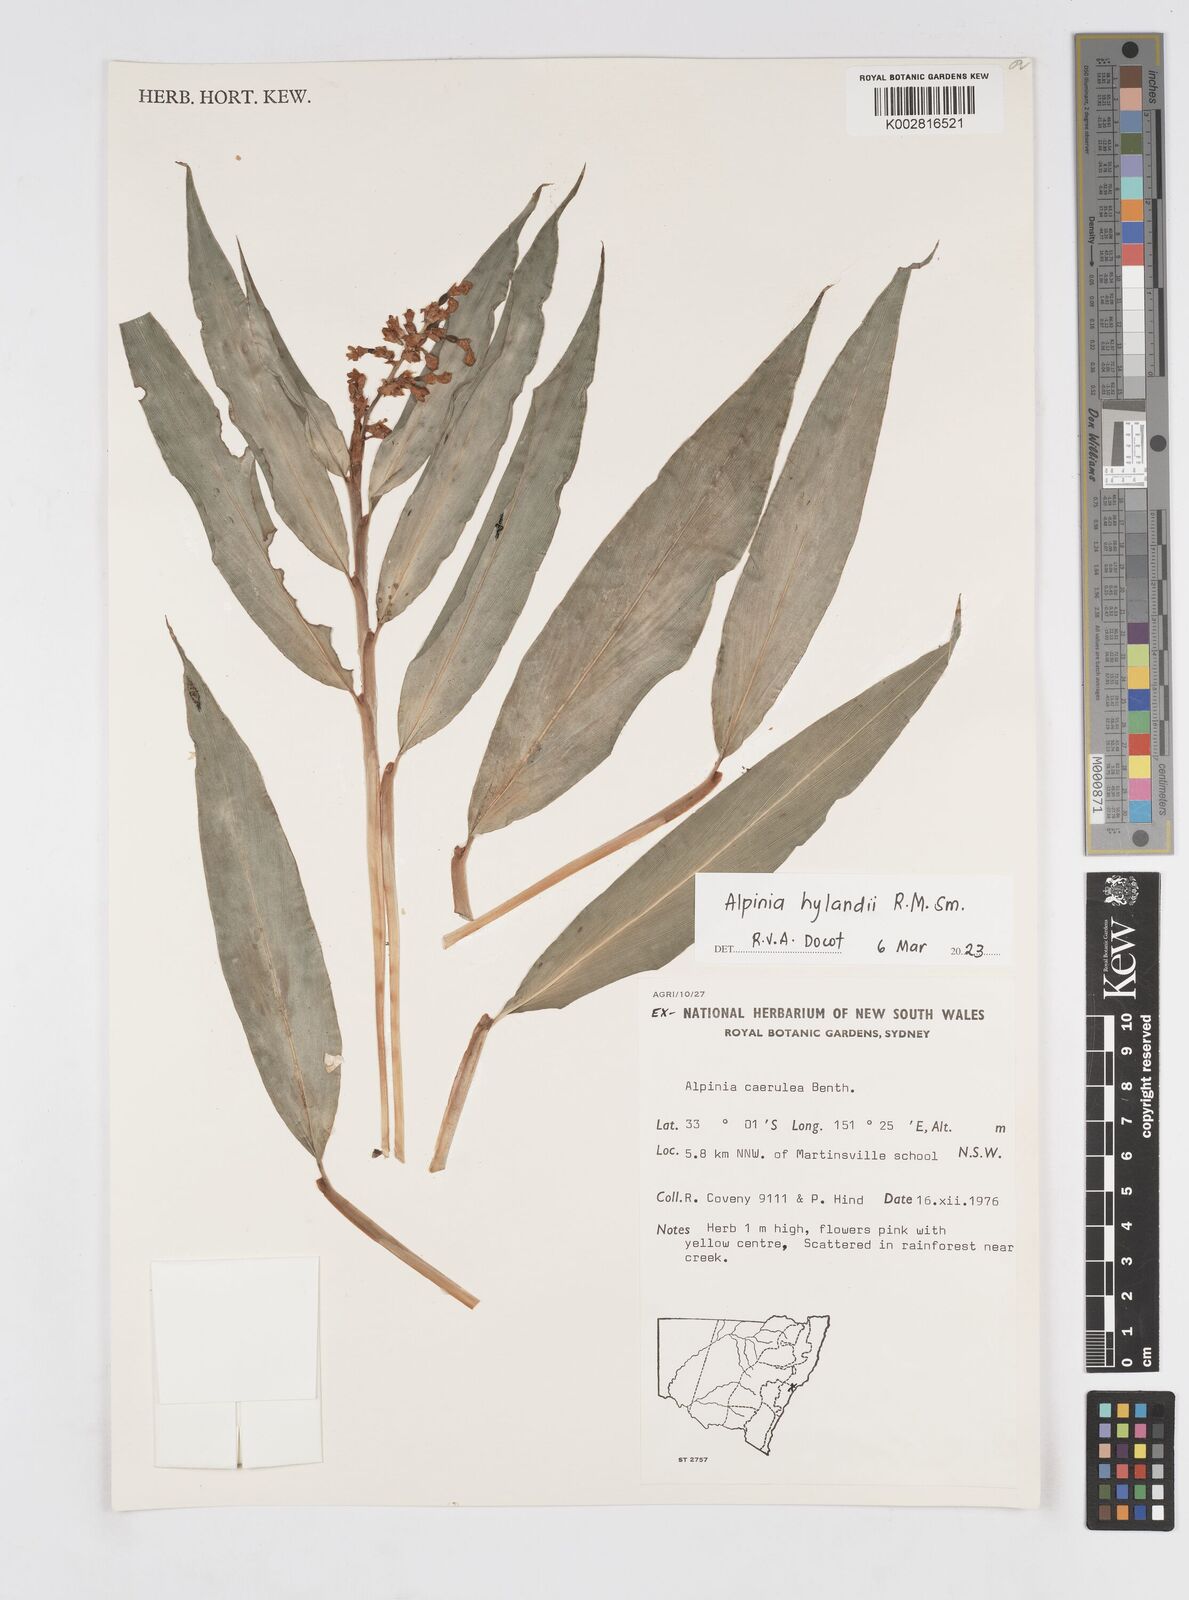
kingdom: Plantae
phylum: Tracheophyta
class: Liliopsida
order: Zingiberales
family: Zingiberaceae
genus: Alpinia
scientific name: Alpinia hylandii
